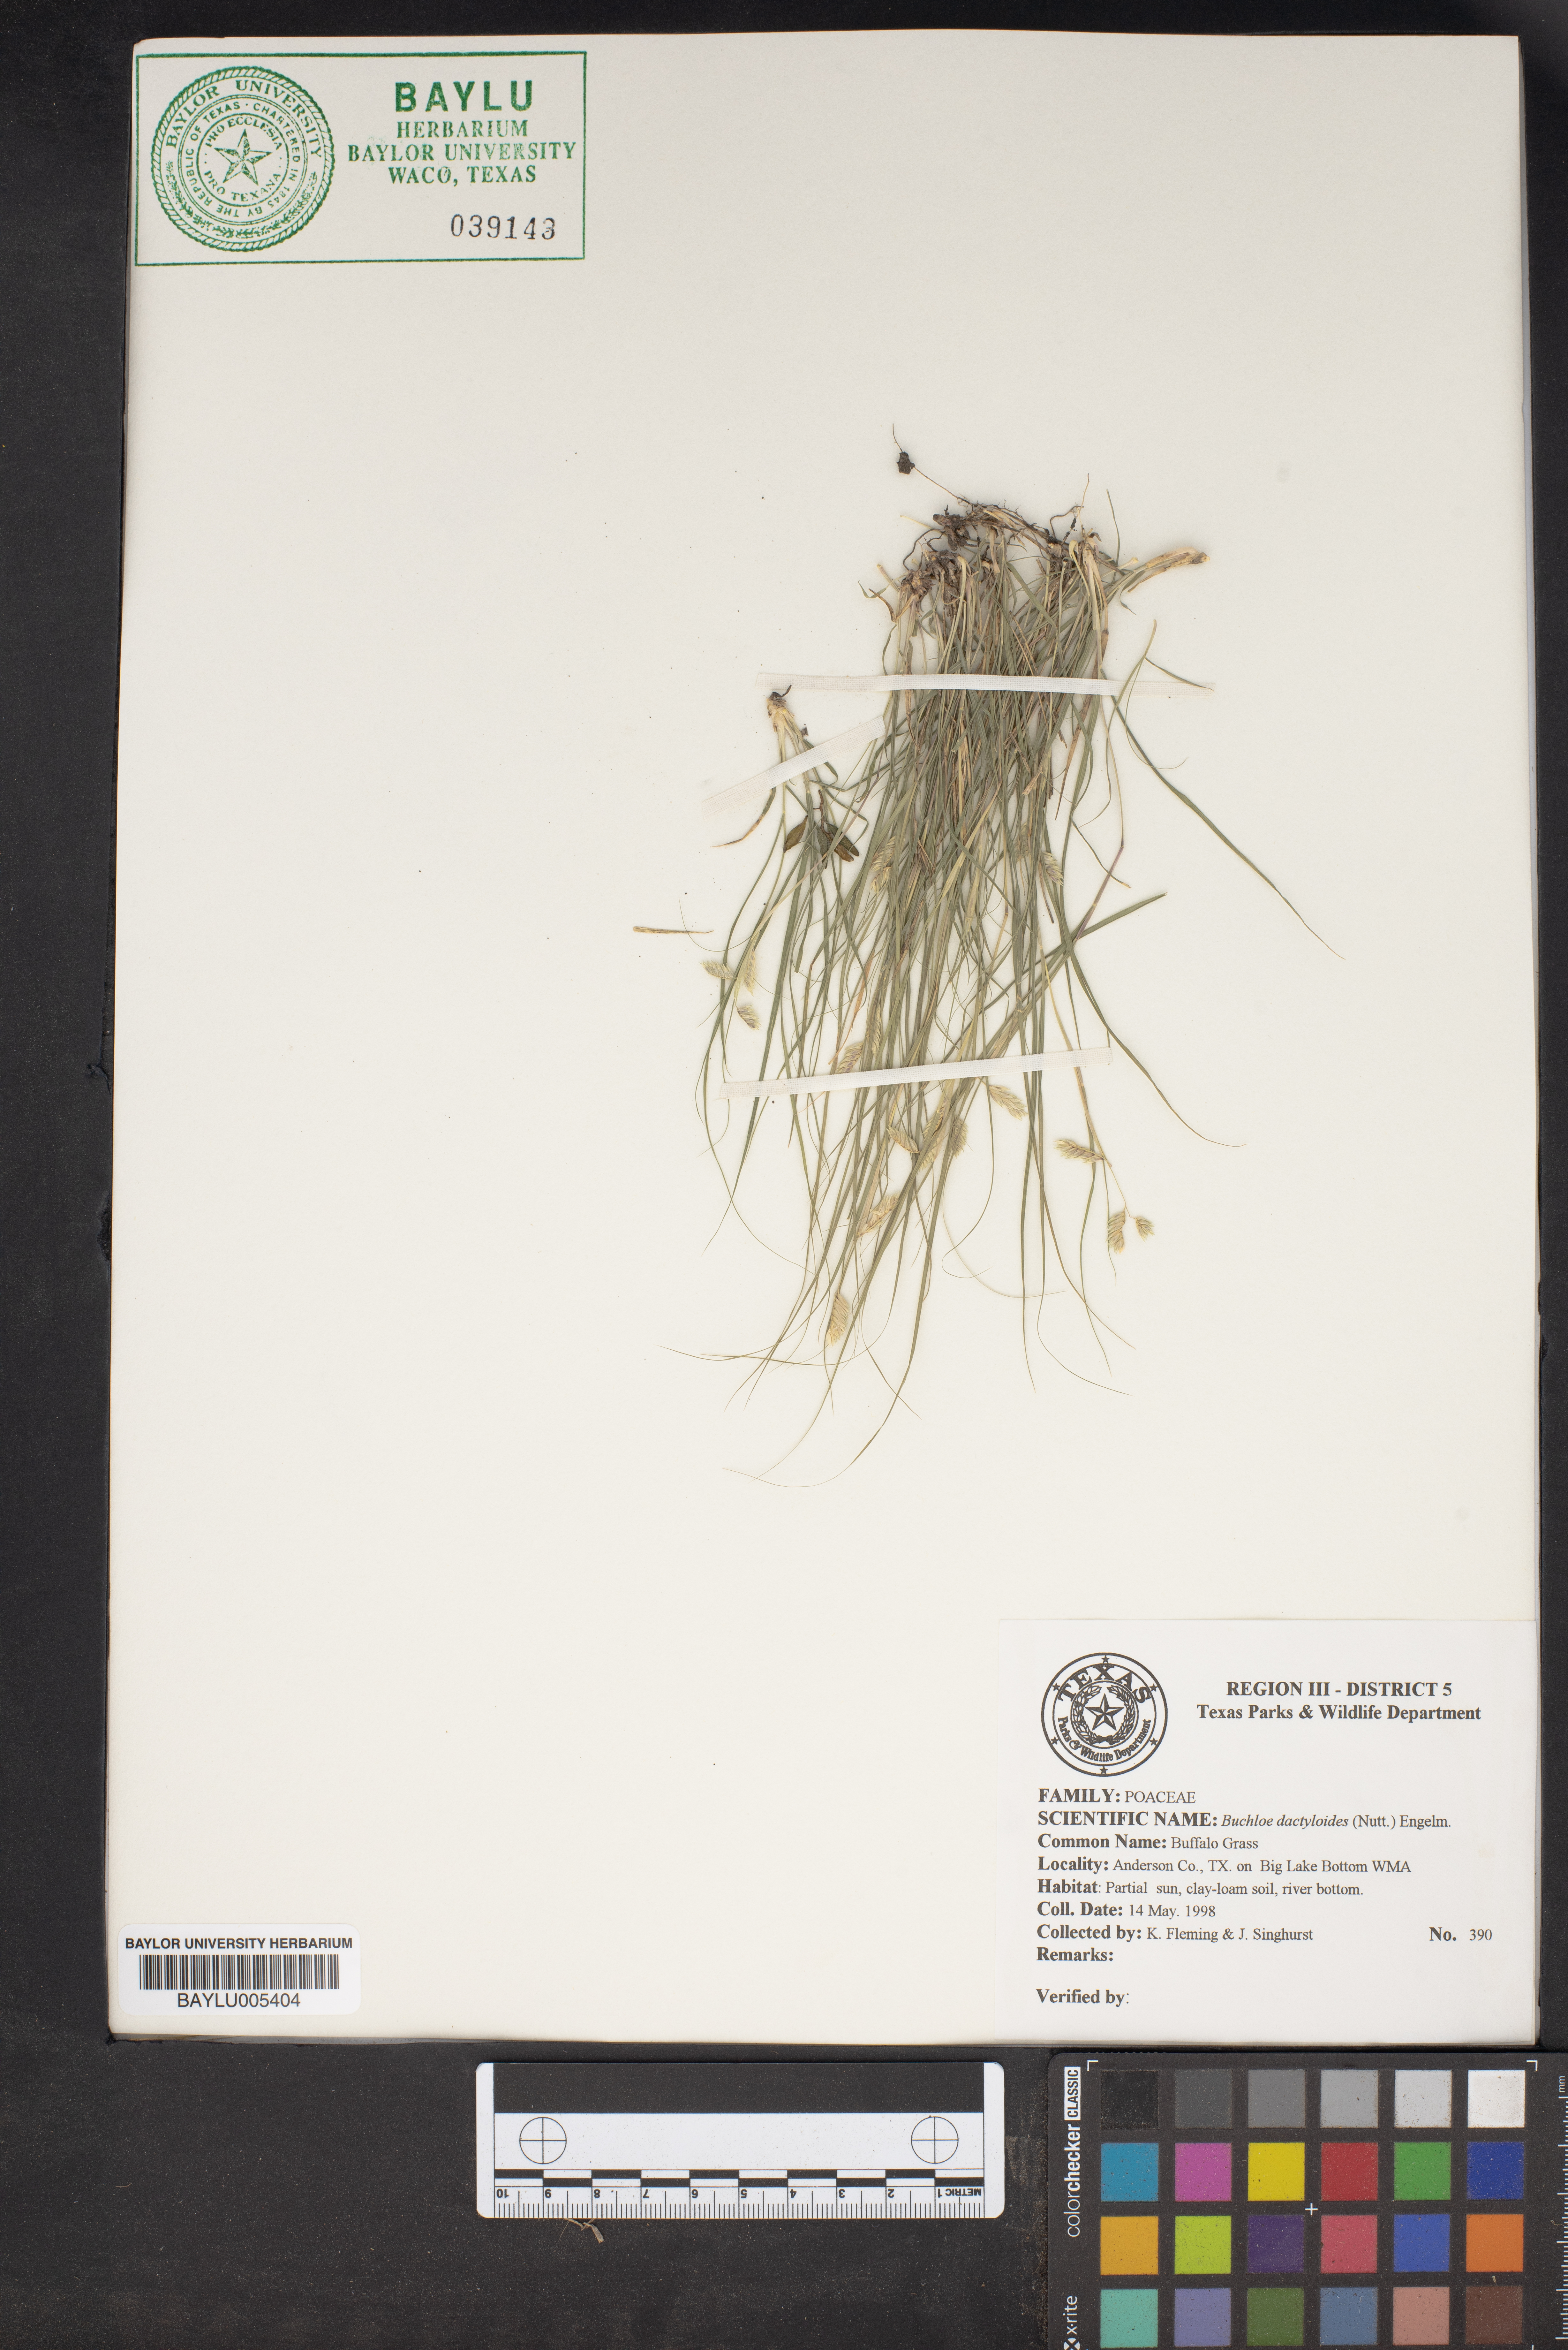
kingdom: Plantae
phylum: Tracheophyta
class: Liliopsida
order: Poales
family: Poaceae
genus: Bouteloua
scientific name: Bouteloua dactyloides
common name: Buffalo grass
